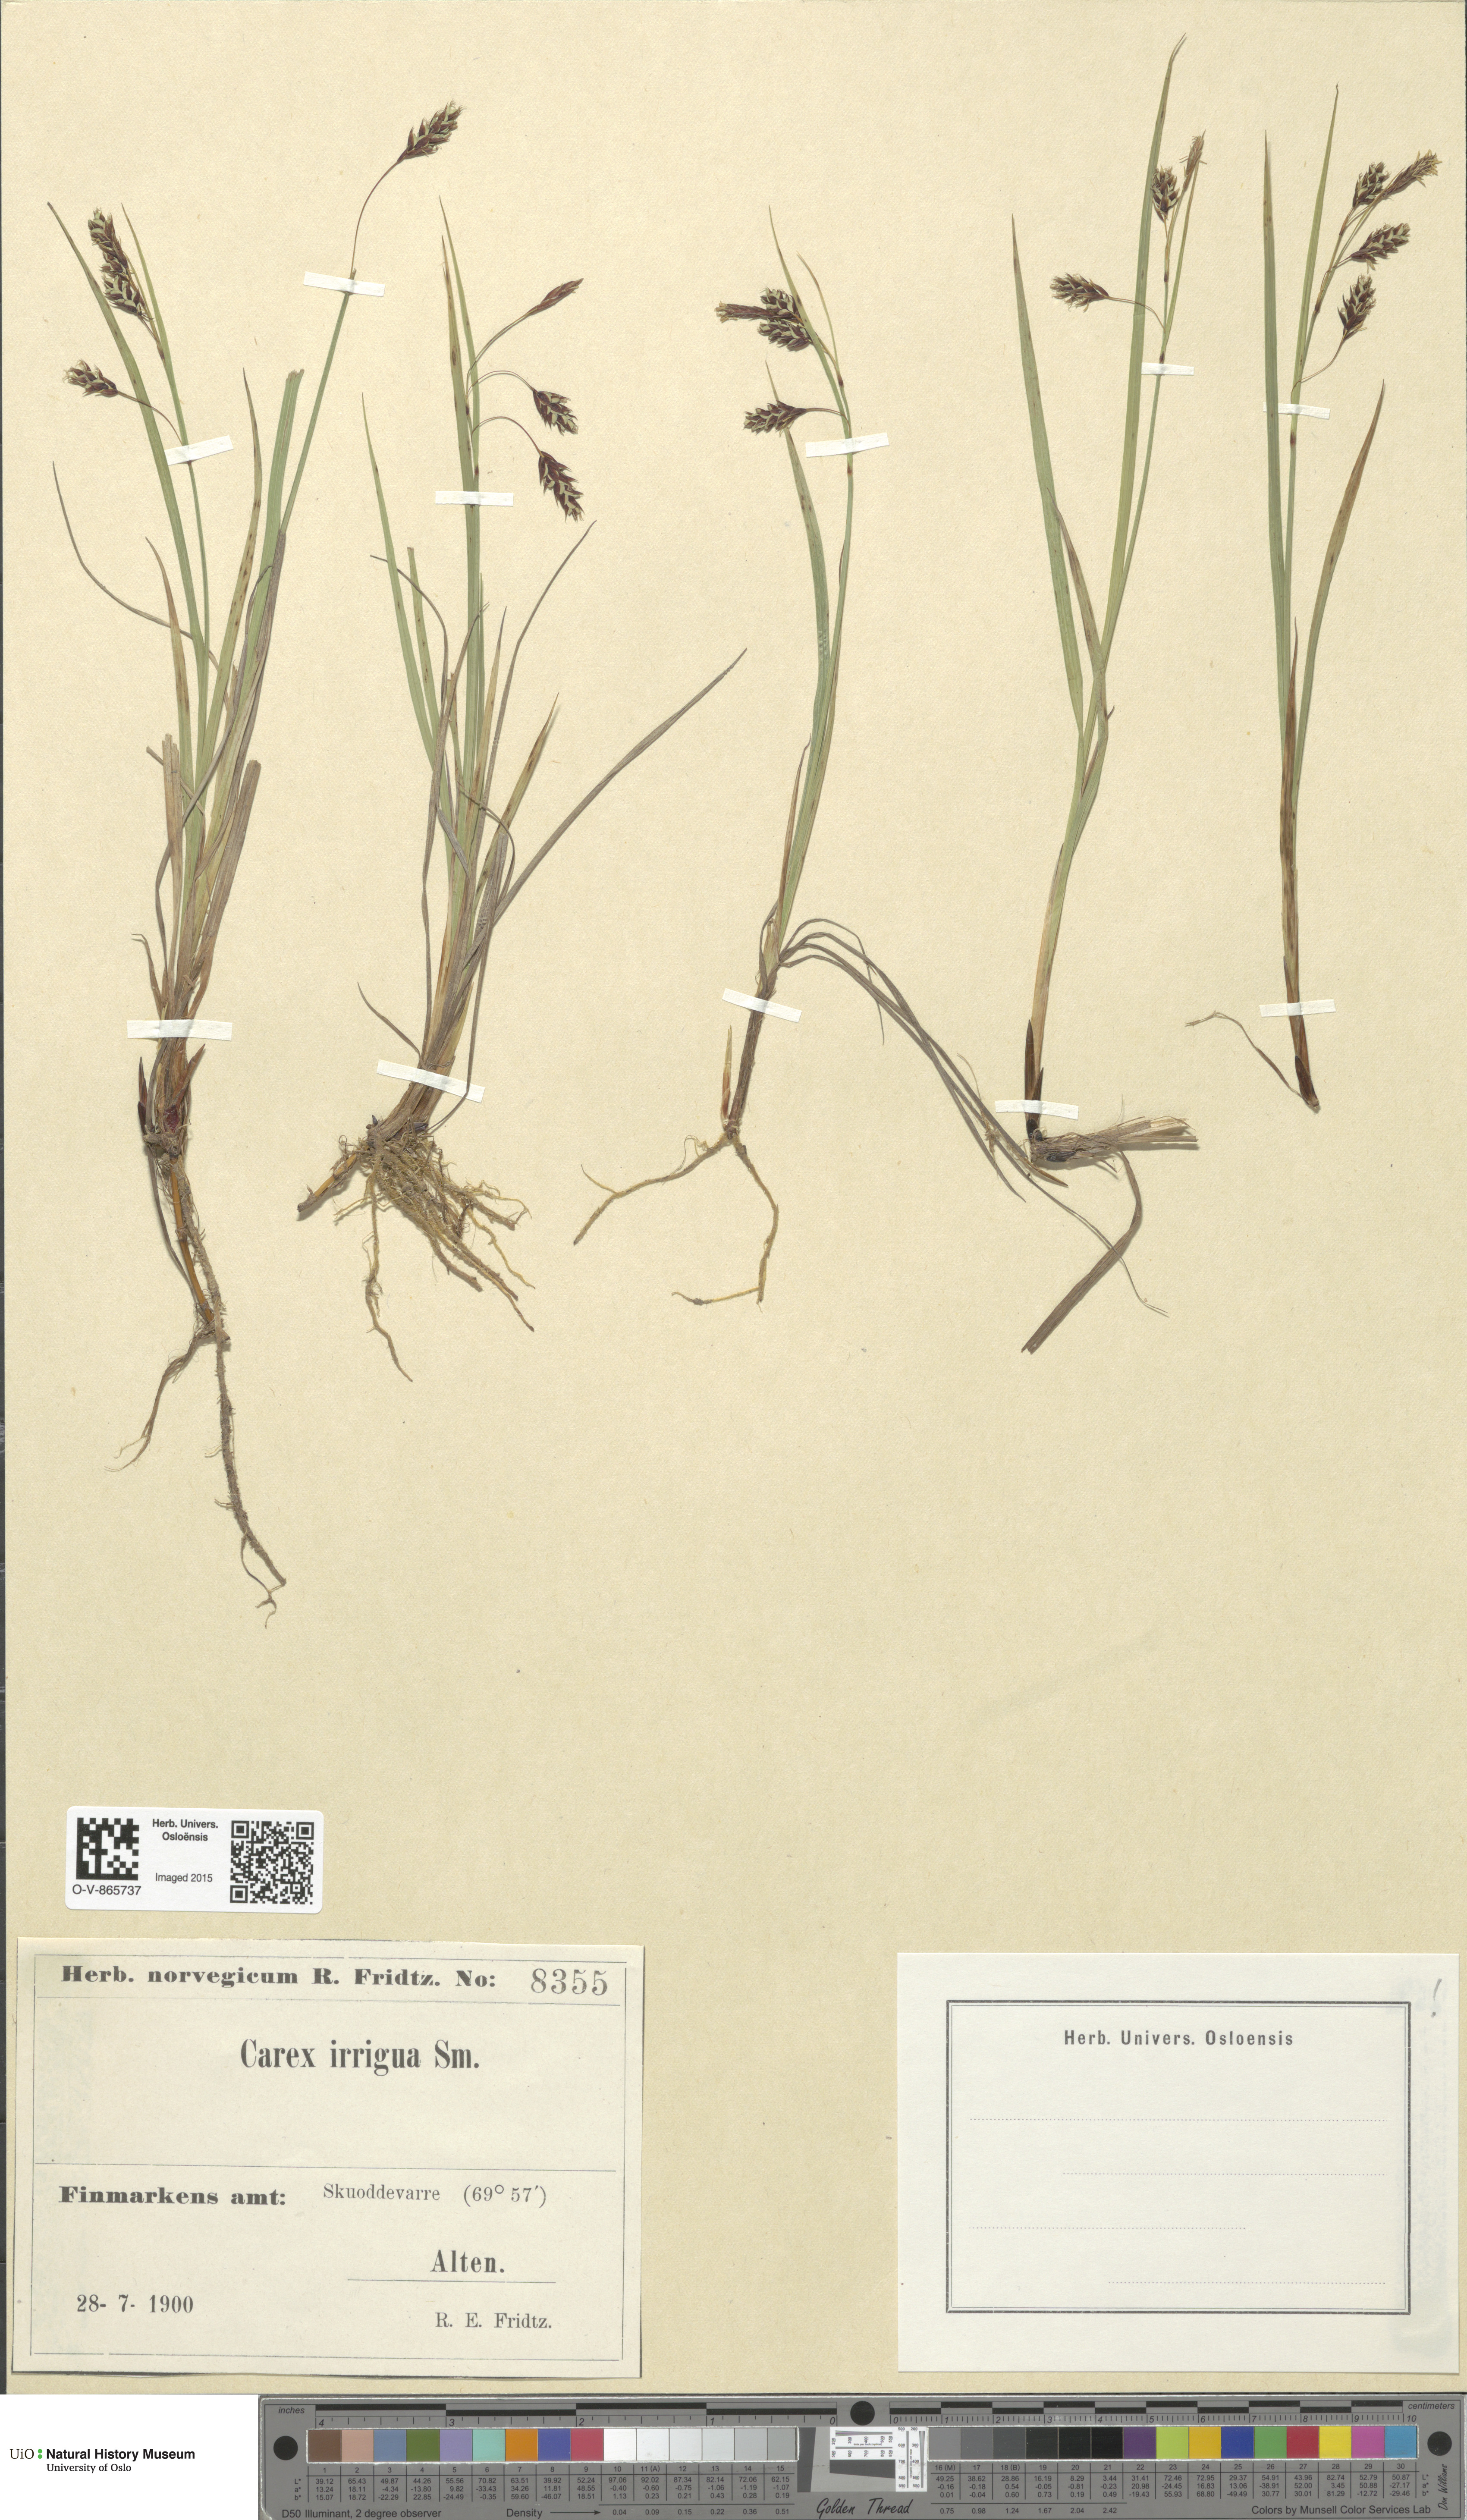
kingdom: Plantae
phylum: Tracheophyta
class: Liliopsida
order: Poales
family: Cyperaceae
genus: Carex
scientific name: Carex magellanica
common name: Bog sedge
